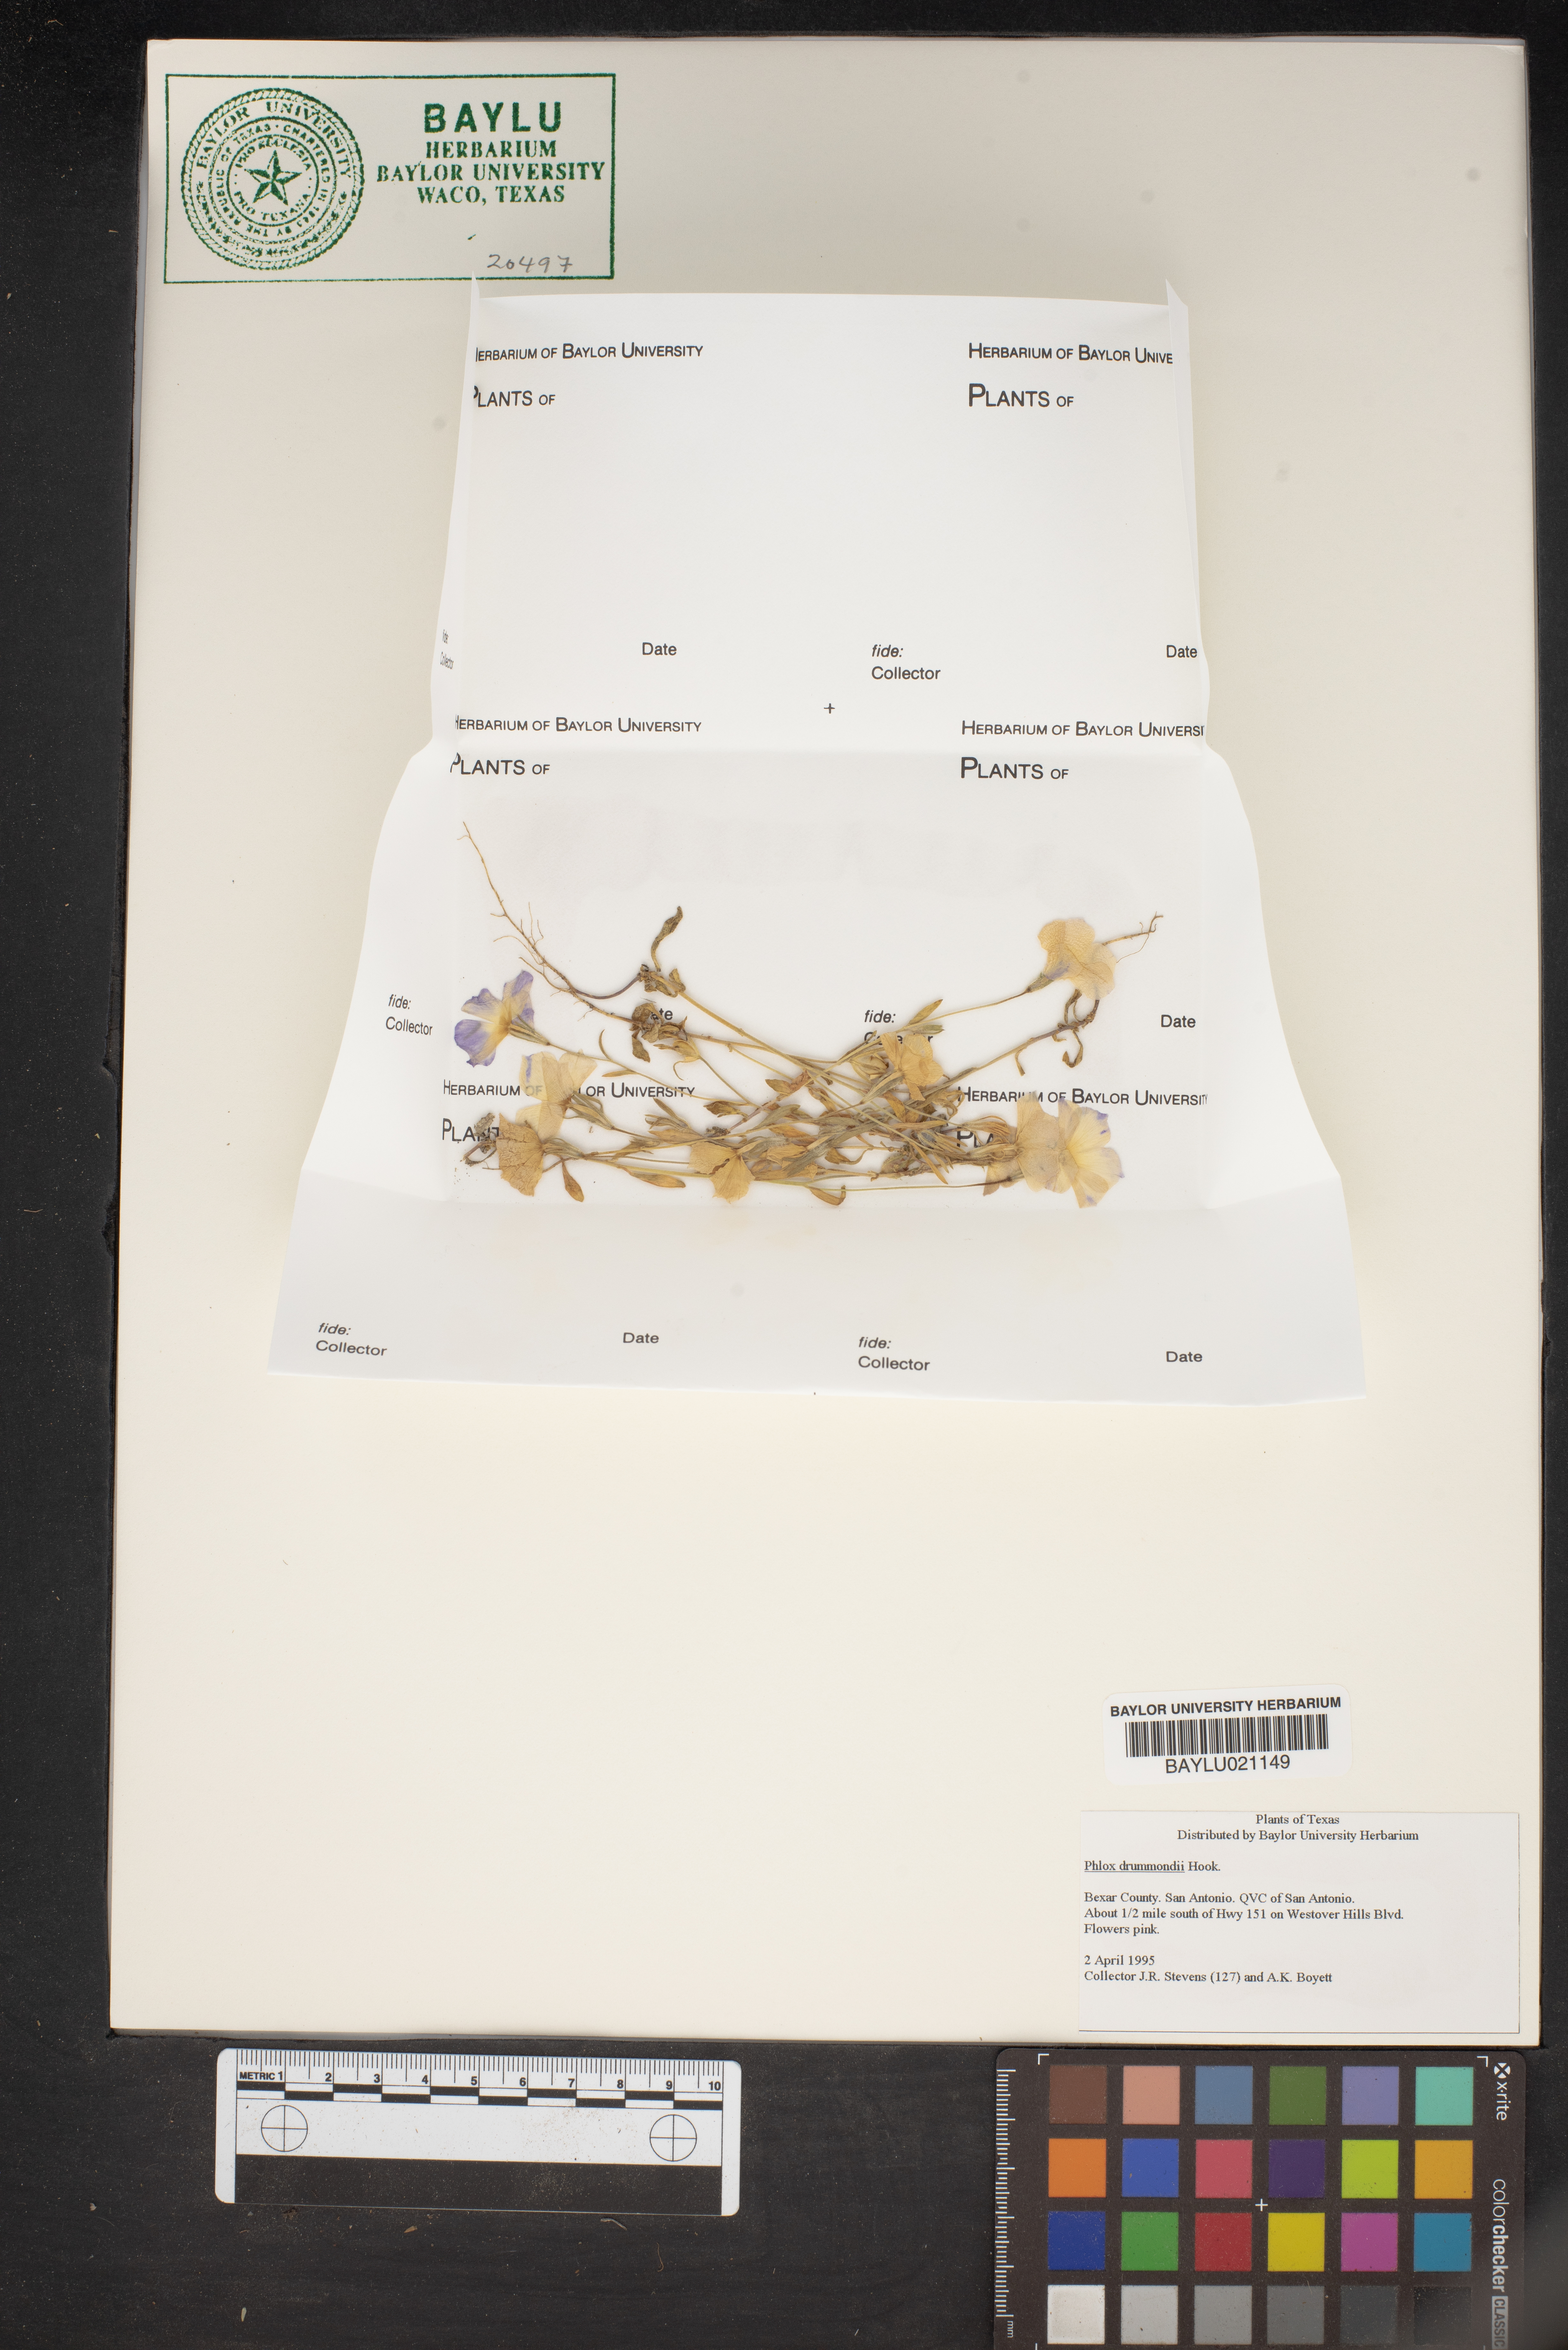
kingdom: Plantae
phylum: Tracheophyta
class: Magnoliopsida
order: Ericales
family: Polemoniaceae
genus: Phlox
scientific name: Phlox drummondii
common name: Drummond's phlox
